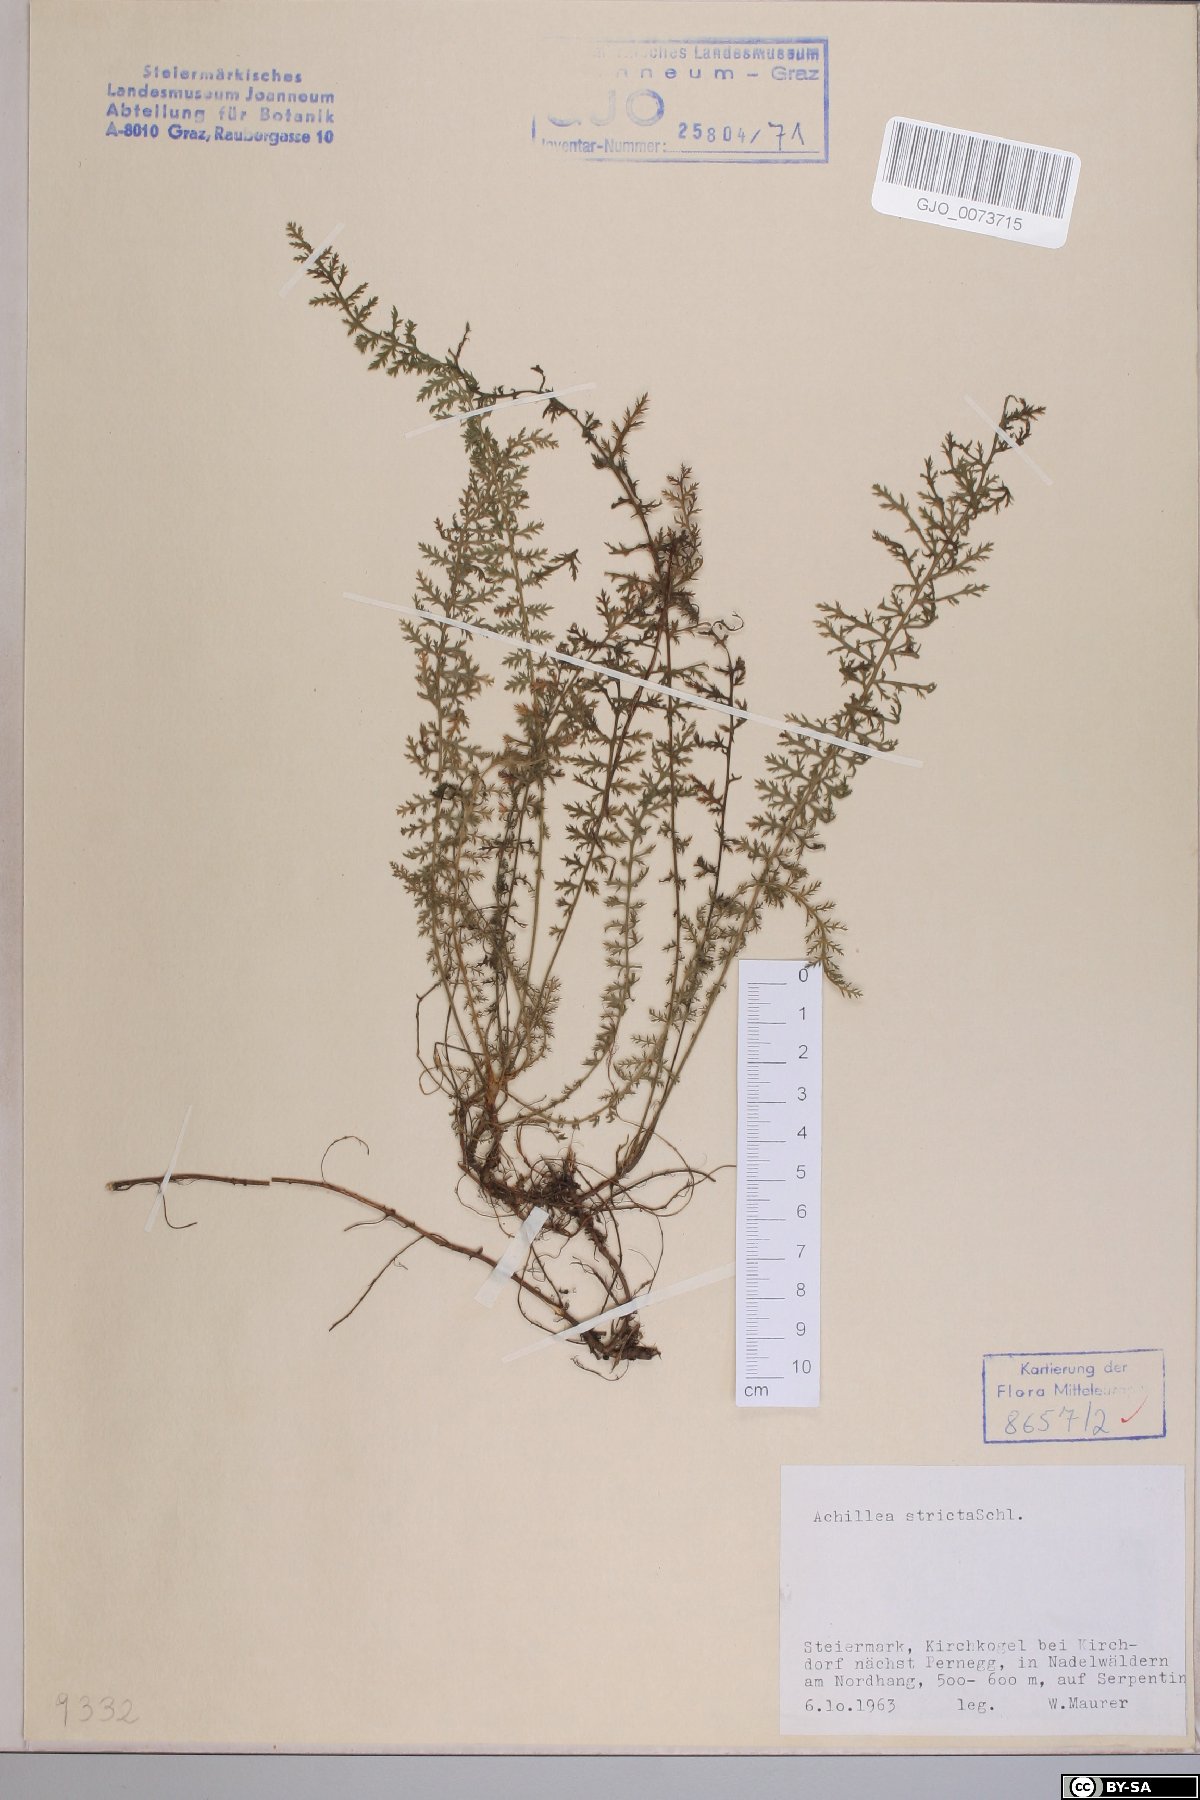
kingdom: Plantae
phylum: Tracheophyta
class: Magnoliopsida
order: Asterales
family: Asteraceae
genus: Achillea
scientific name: Achillea distans
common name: Tall yarrow
